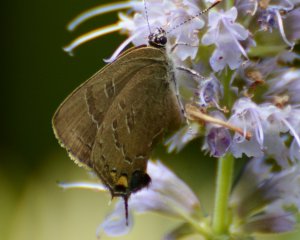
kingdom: Animalia
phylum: Arthropoda
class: Insecta
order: Lepidoptera
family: Lycaenidae
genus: Satyrium
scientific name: Satyrium calanus
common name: Banded Hairstreak
